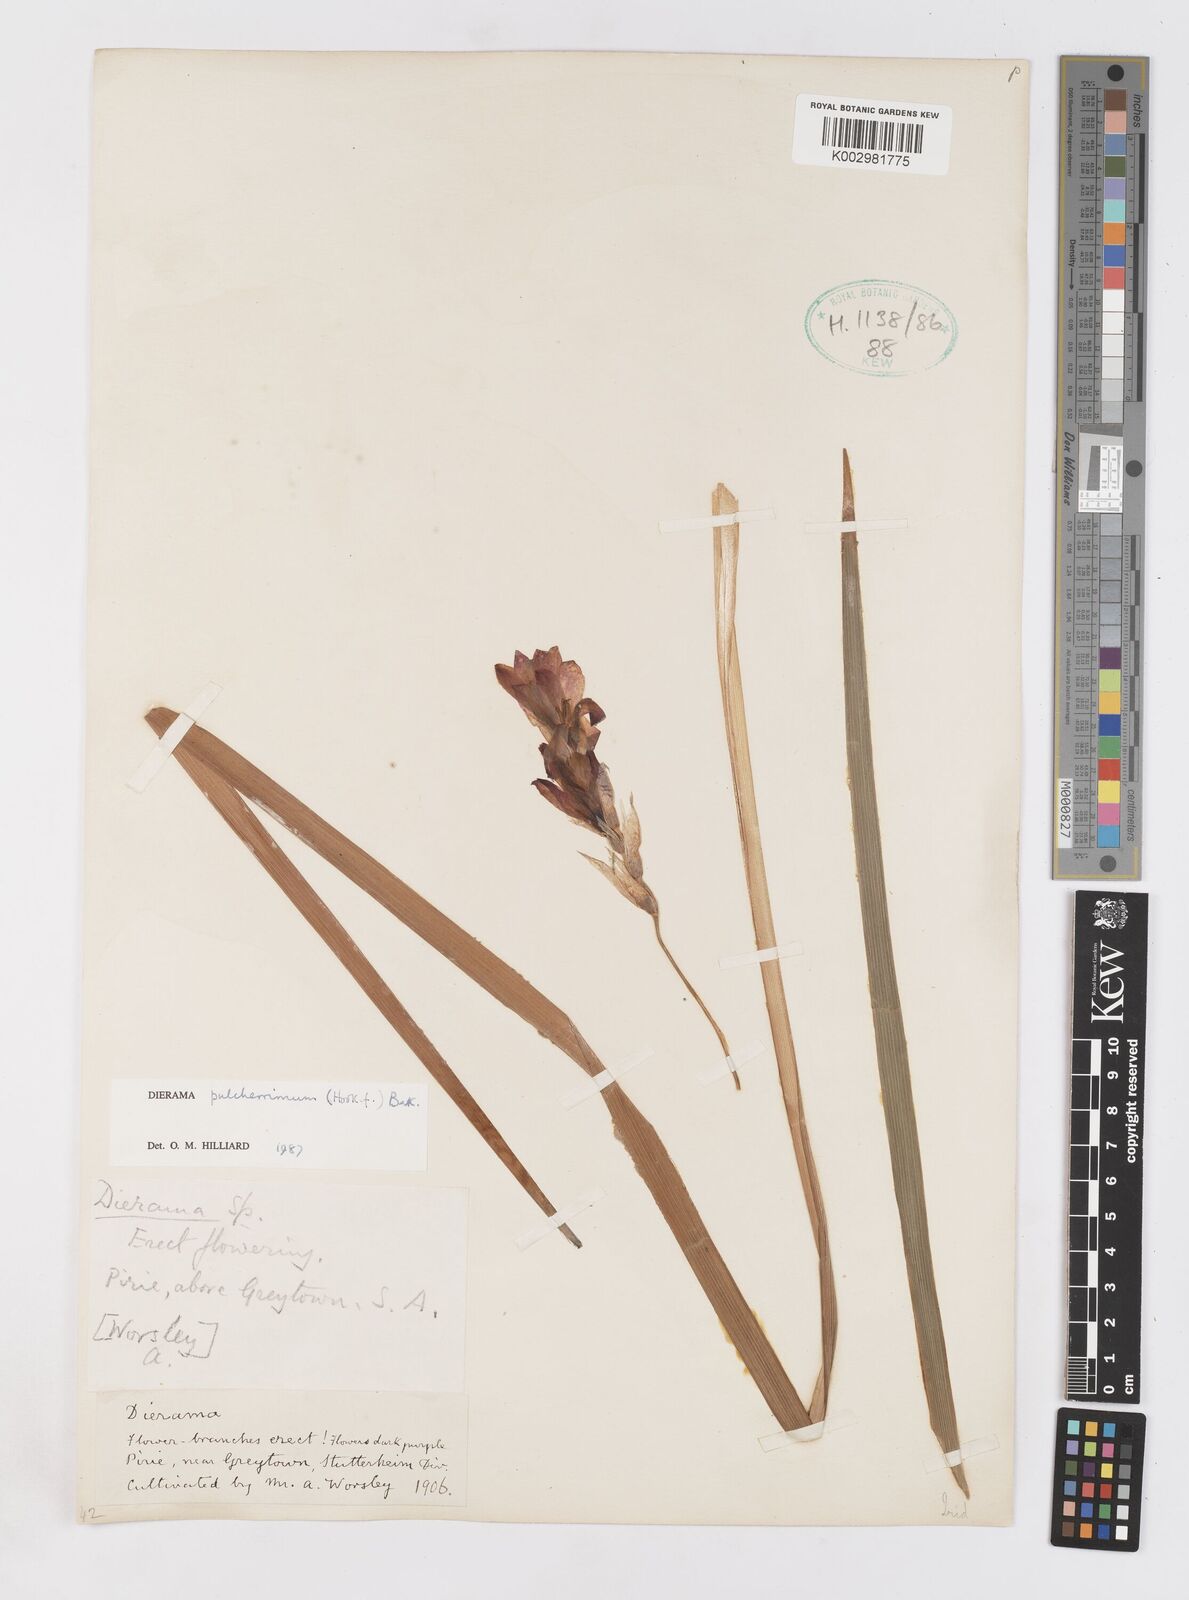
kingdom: Plantae
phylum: Tracheophyta
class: Liliopsida
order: Asparagales
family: Iridaceae
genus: Dierama
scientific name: Dierama pulcherrimum
